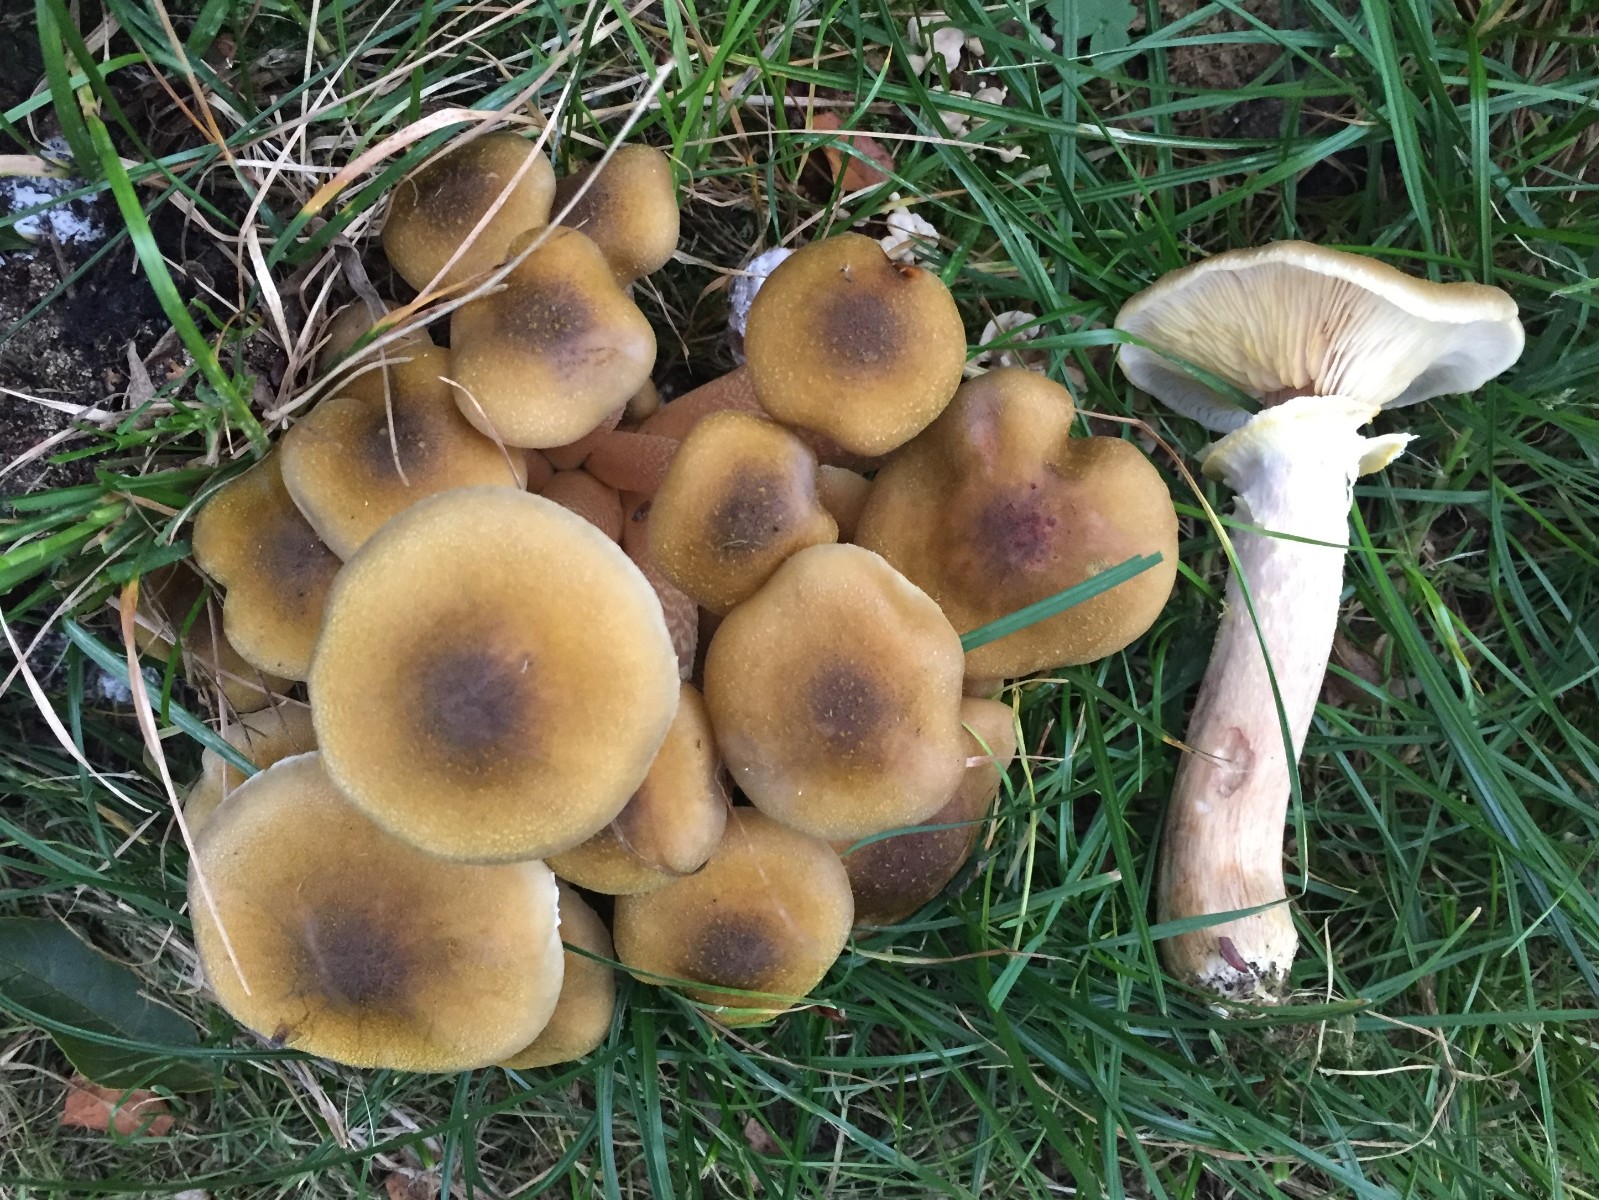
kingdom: Fungi
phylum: Basidiomycota
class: Agaricomycetes
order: Agaricales
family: Physalacriaceae
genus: Armillaria
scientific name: Armillaria mellea
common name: ægte honningsvamp
